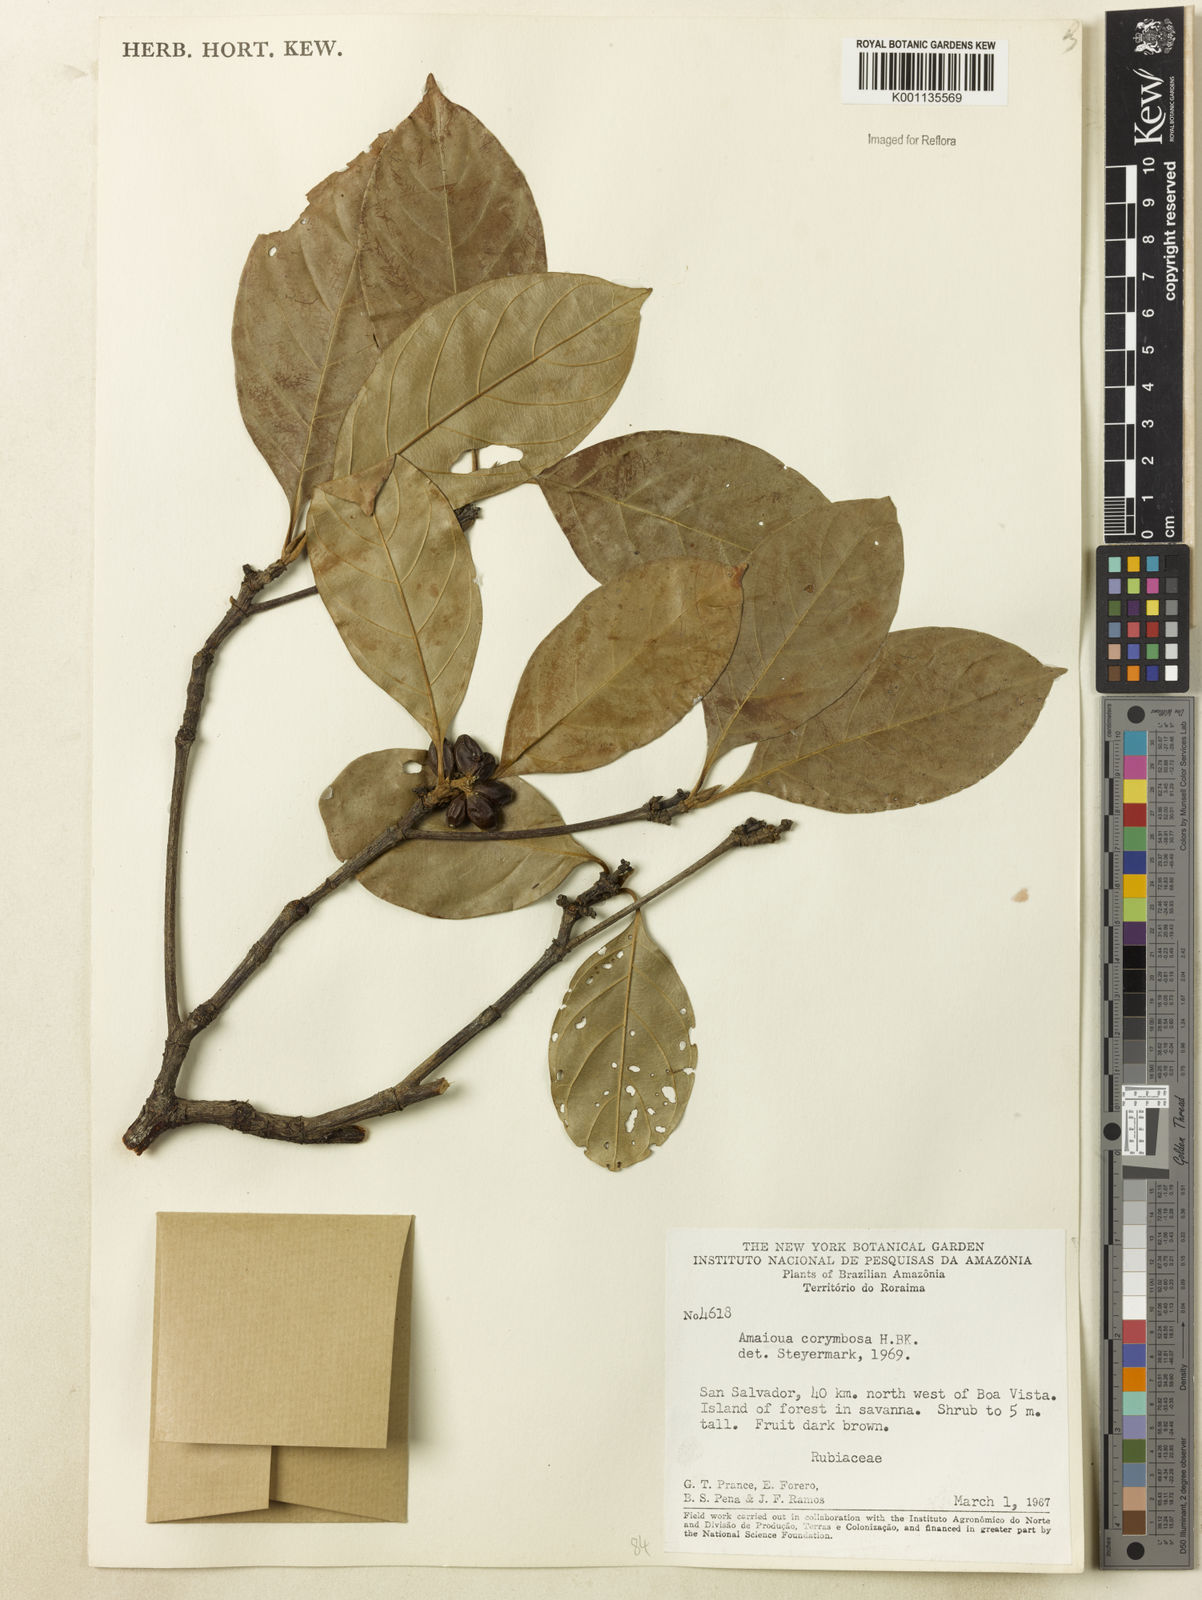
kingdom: Plantae
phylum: Tracheophyta
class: Magnoliopsida
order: Gentianales
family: Rubiaceae
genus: Amaioua
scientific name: Amaioua glomerulata
